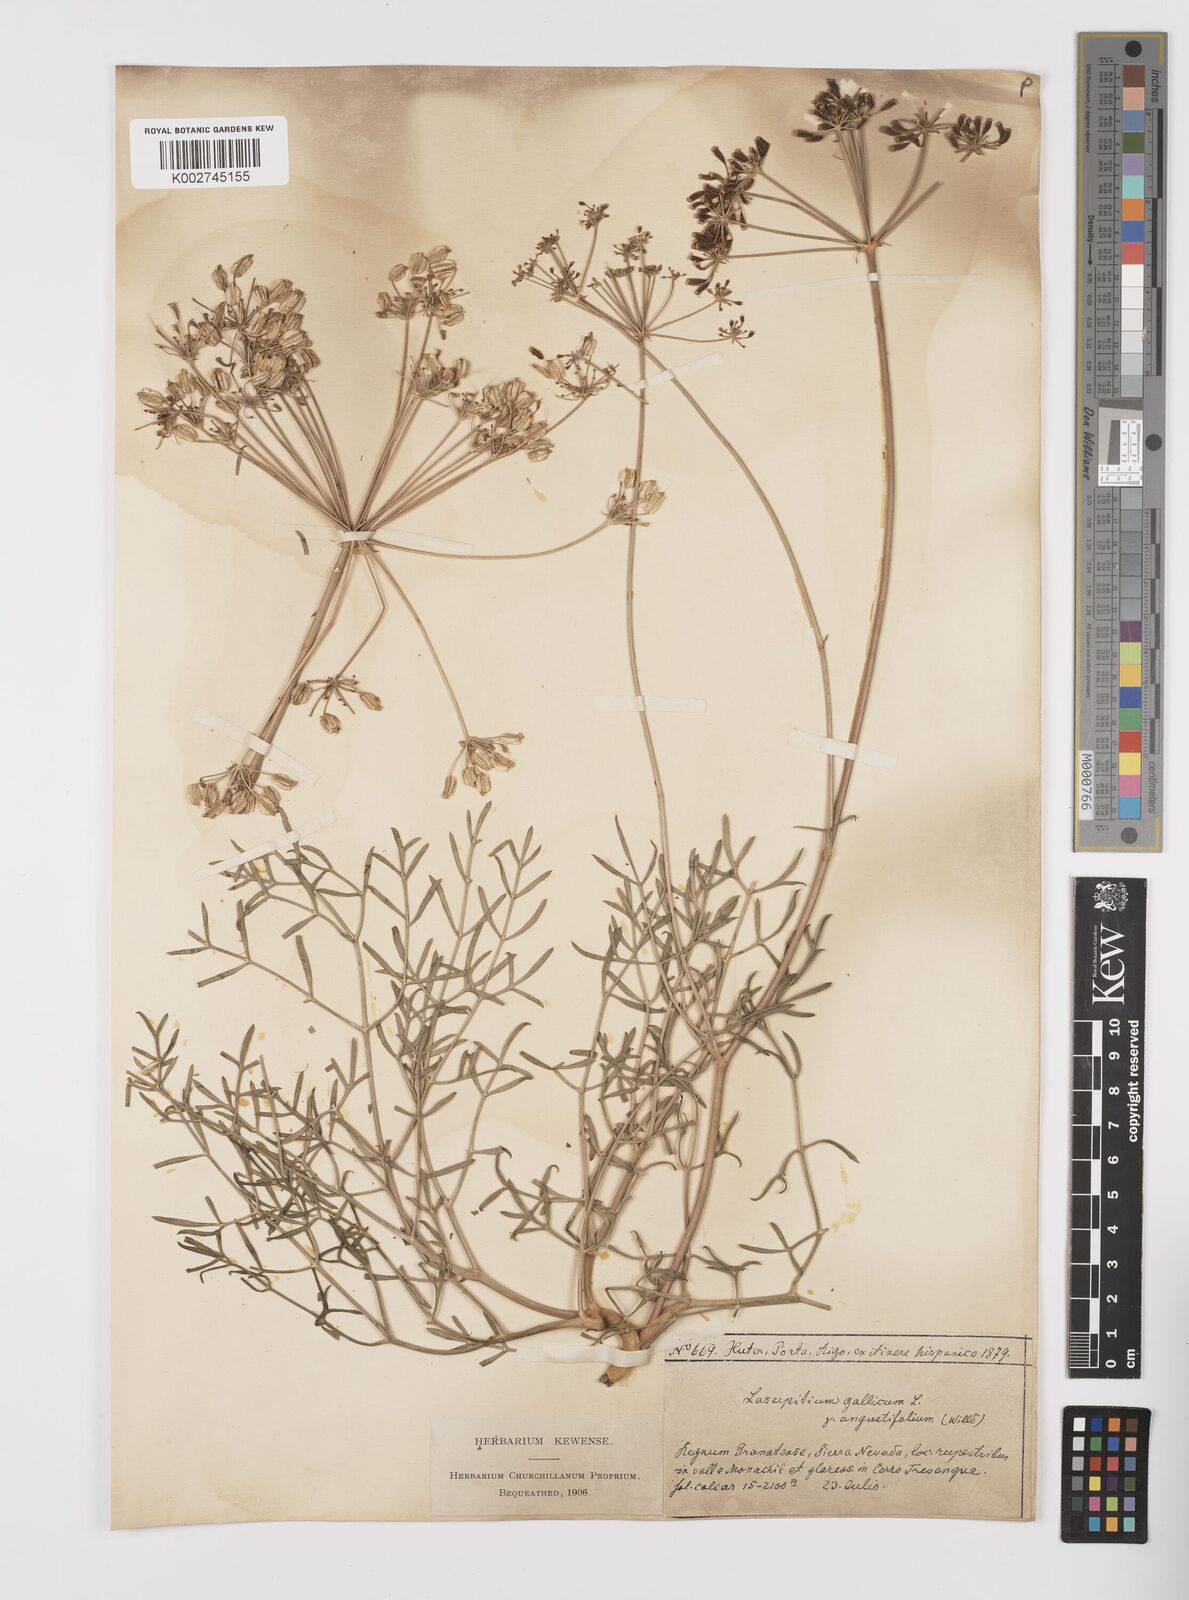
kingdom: Plantae
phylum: Tracheophyta
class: Magnoliopsida
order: Apiales
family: Apiaceae
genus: Laserpitium
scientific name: Laserpitium gallicum
